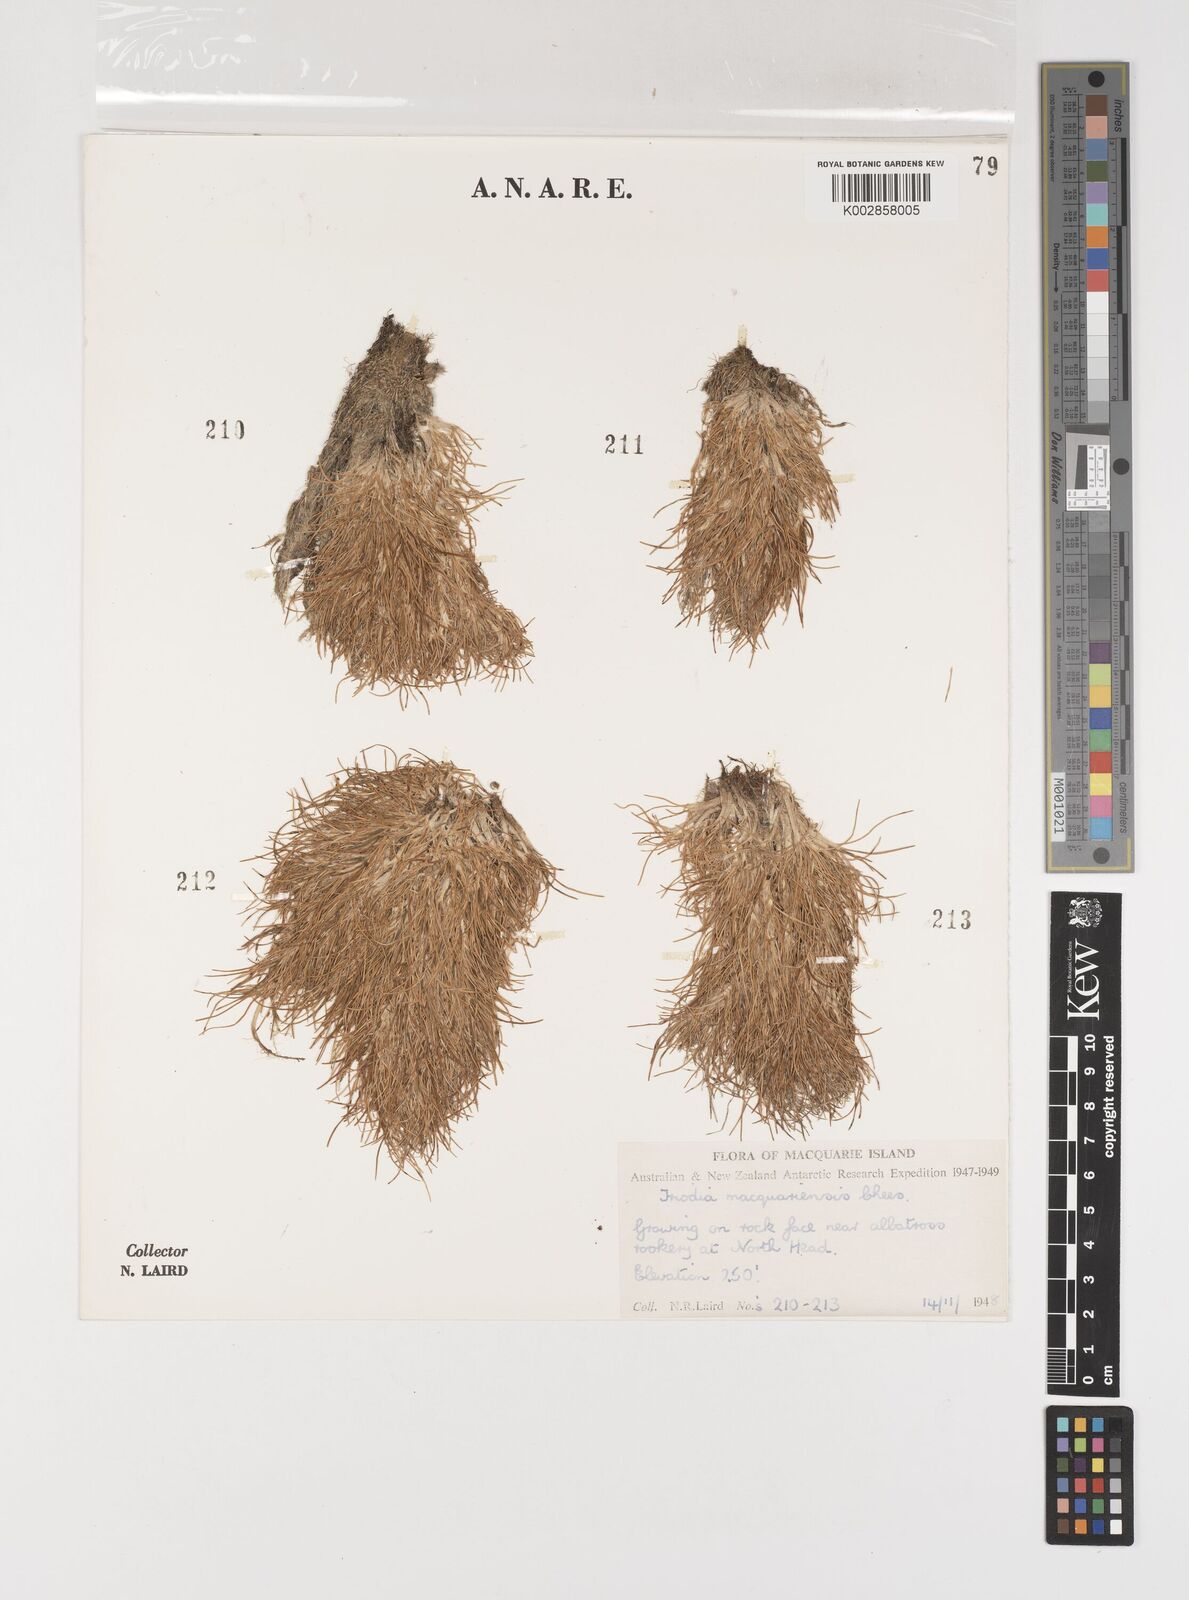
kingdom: Plantae
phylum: Tracheophyta
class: Liliopsida
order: Poales
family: Poaceae
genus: Puccinellia
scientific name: Puccinellia macquariensis
